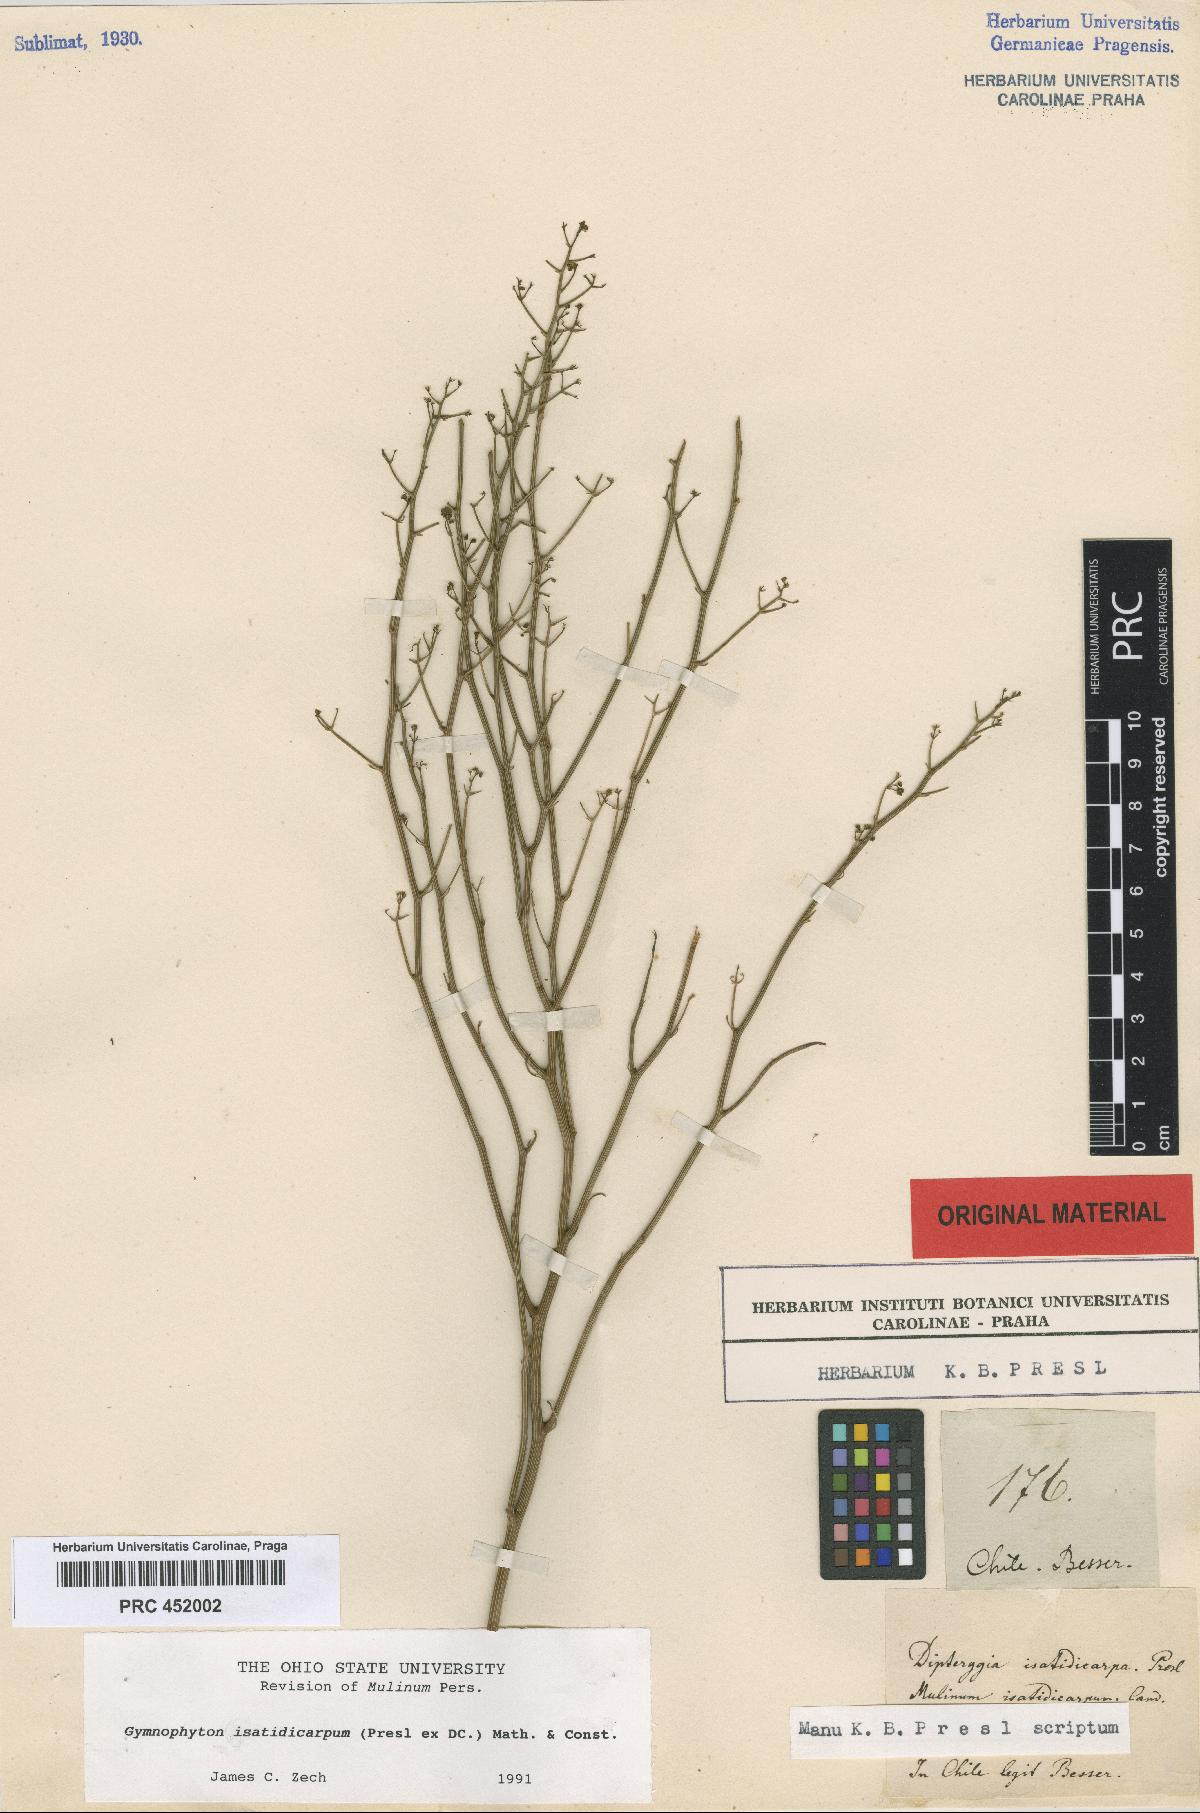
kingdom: Plantae
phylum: Tracheophyta
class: Magnoliopsida
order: Apiales
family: Apiaceae
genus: Gymnophyton
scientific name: Gymnophyton isatidicarpum
